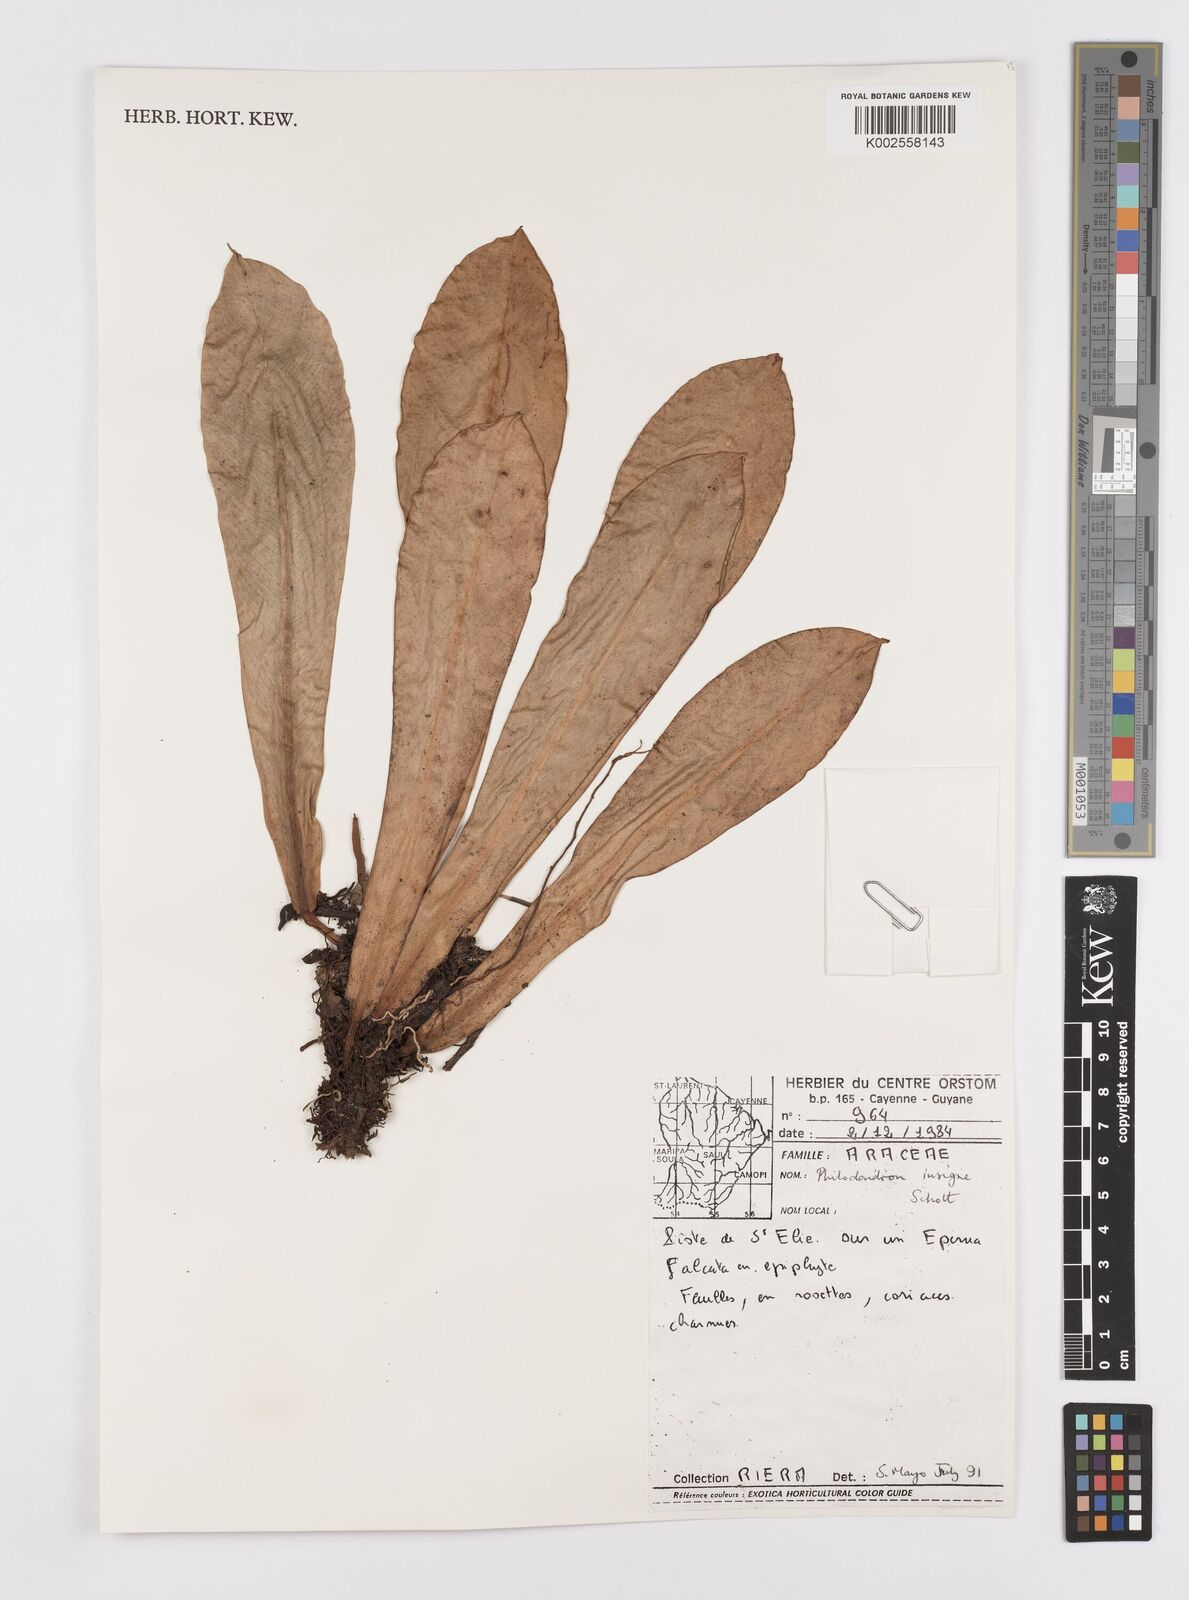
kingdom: Plantae
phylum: Tracheophyta
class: Liliopsida
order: Alismatales
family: Araceae
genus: Philodendron
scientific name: Philodendron insigne
